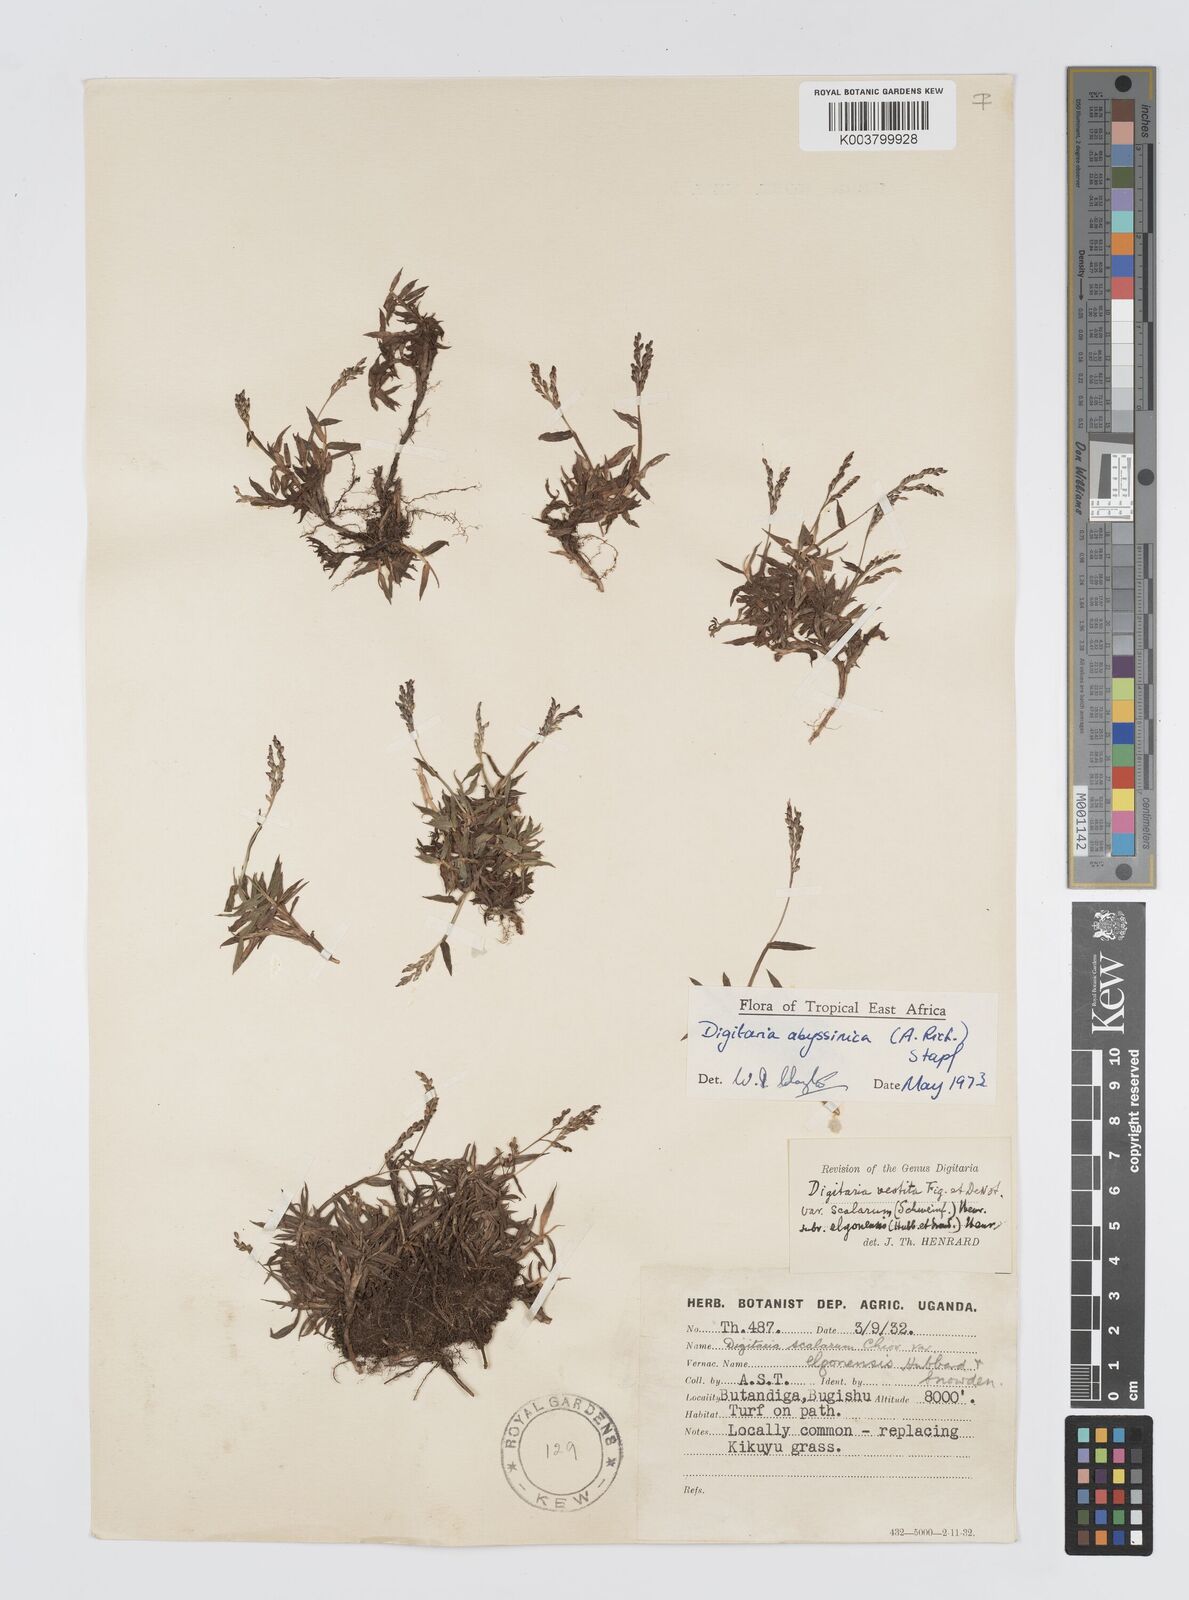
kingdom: Plantae
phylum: Tracheophyta
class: Liliopsida
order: Poales
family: Poaceae
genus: Digitaria
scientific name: Digitaria abyssinica
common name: African couchgrass
